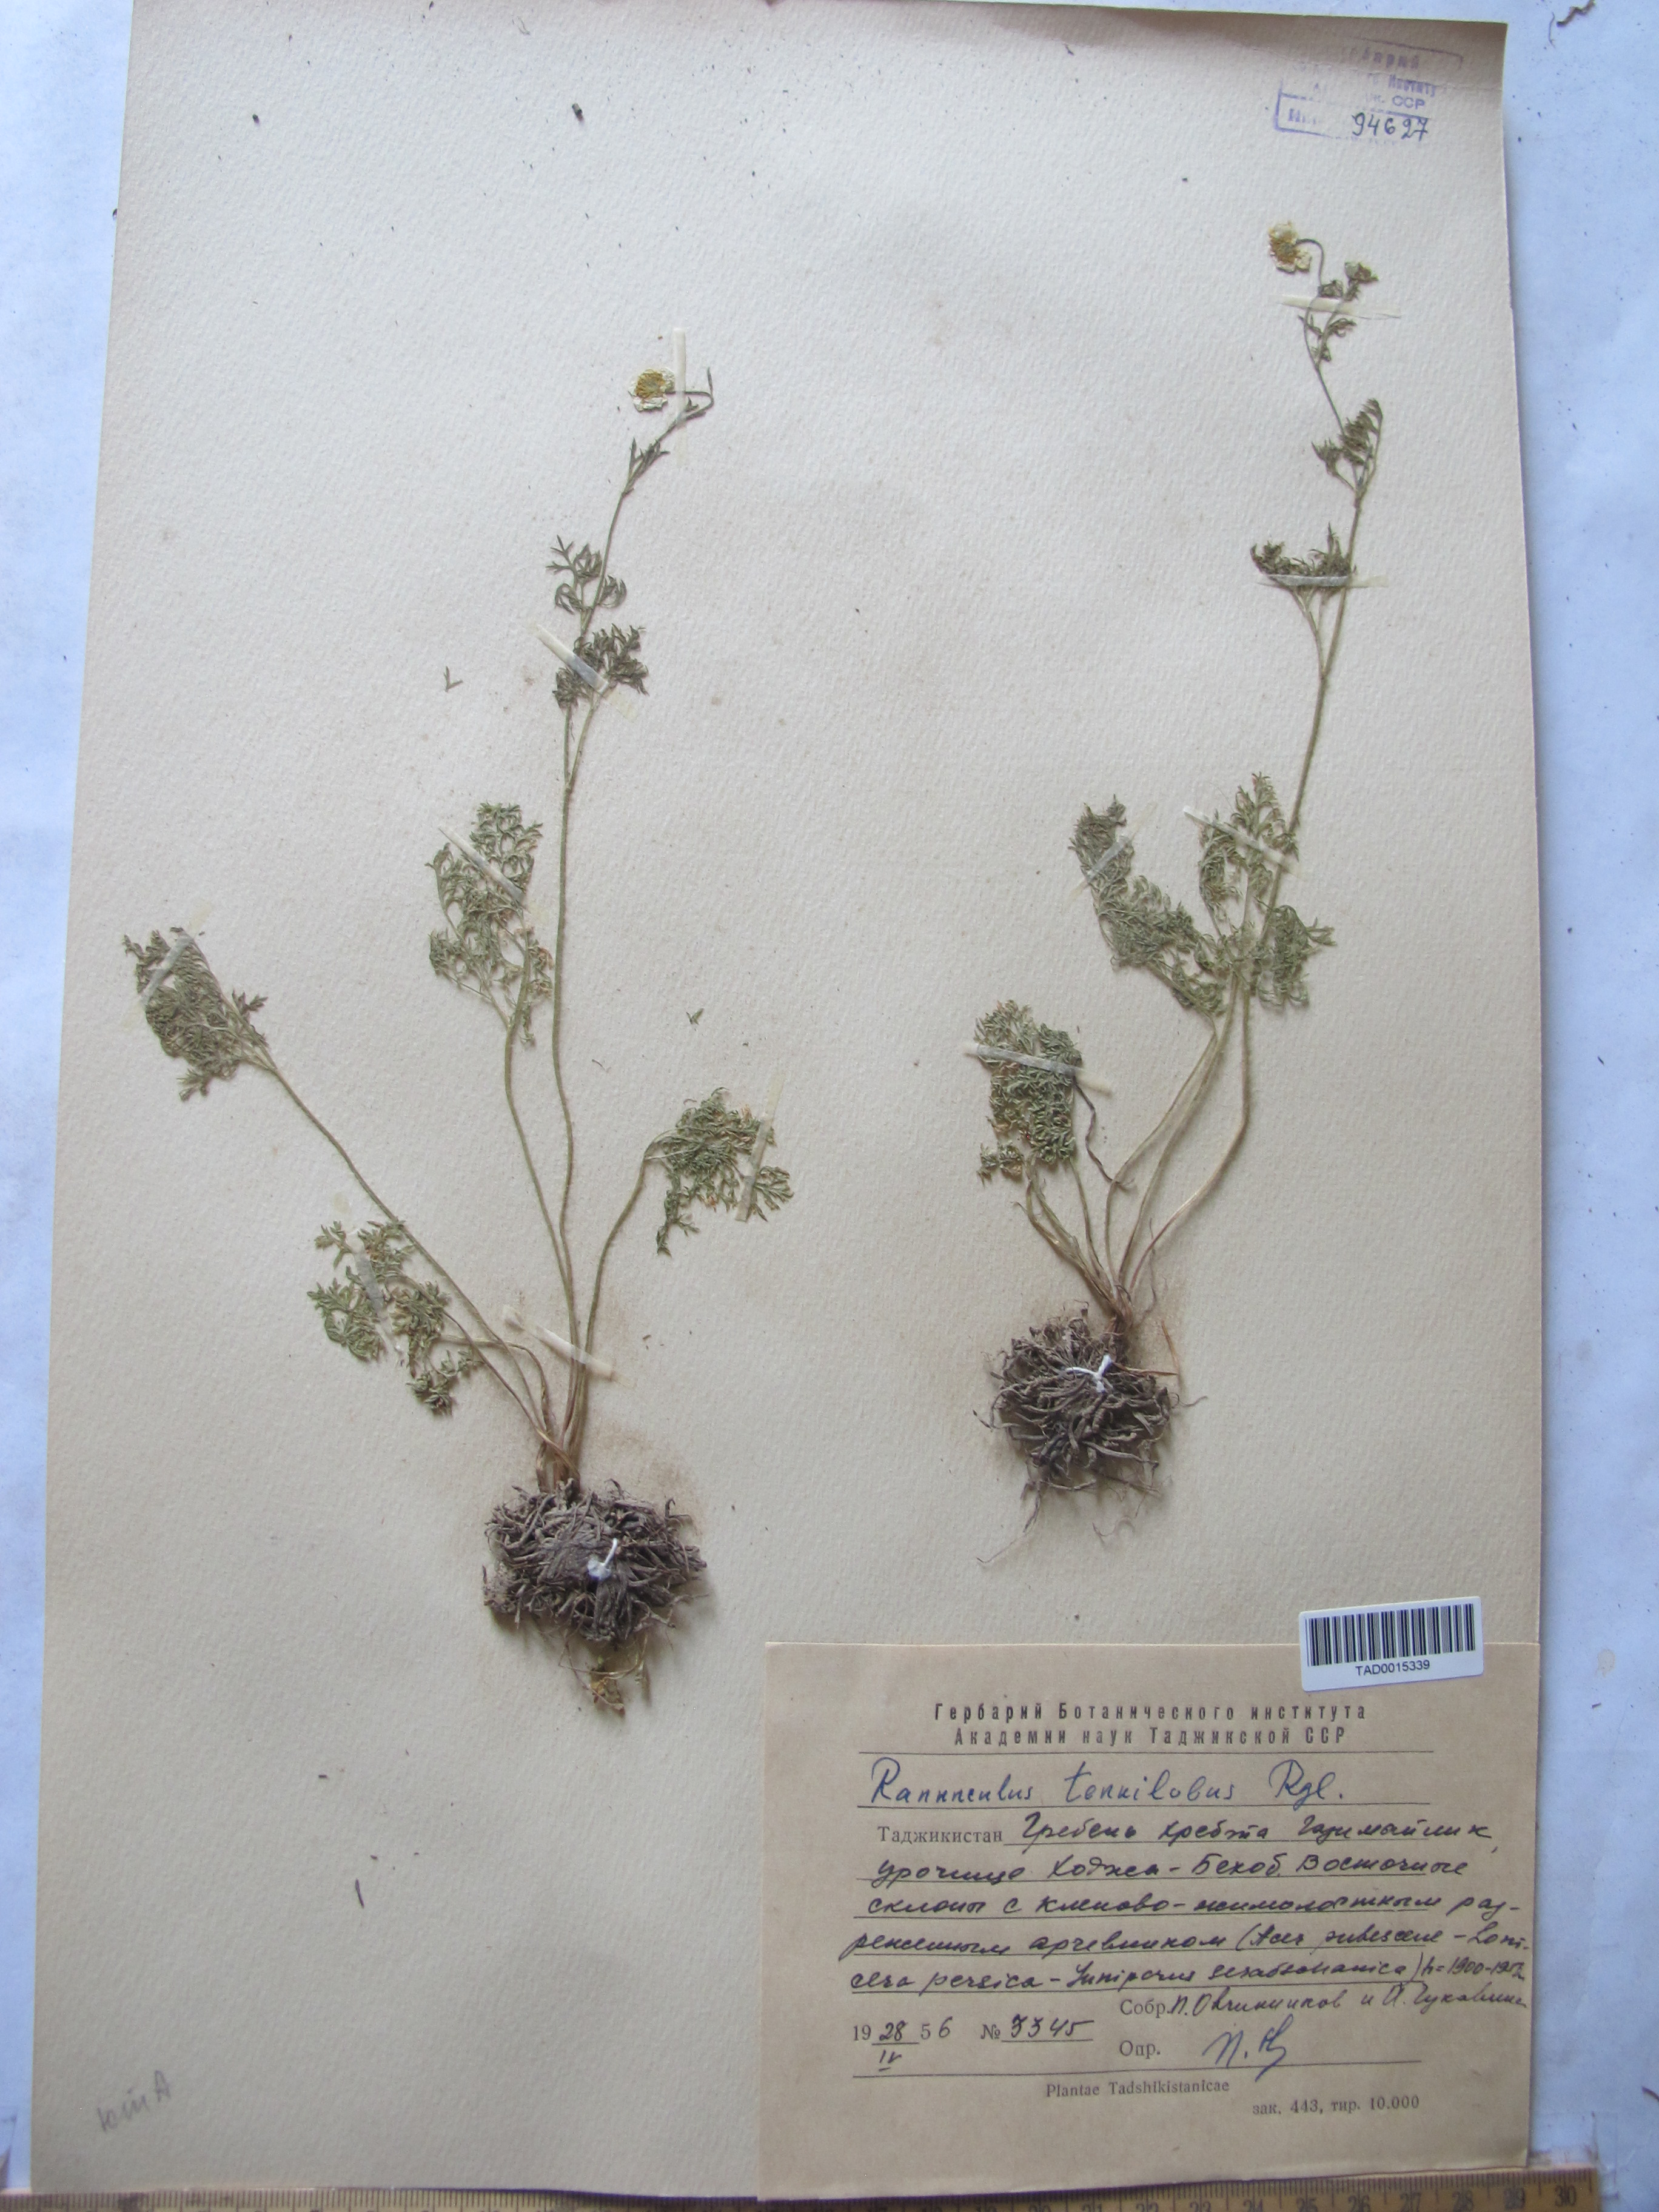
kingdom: Plantae
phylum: Tracheophyta
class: Magnoliopsida
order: Ranunculales
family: Ranunculaceae
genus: Ranunculus
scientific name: Ranunculus tenuilobus
